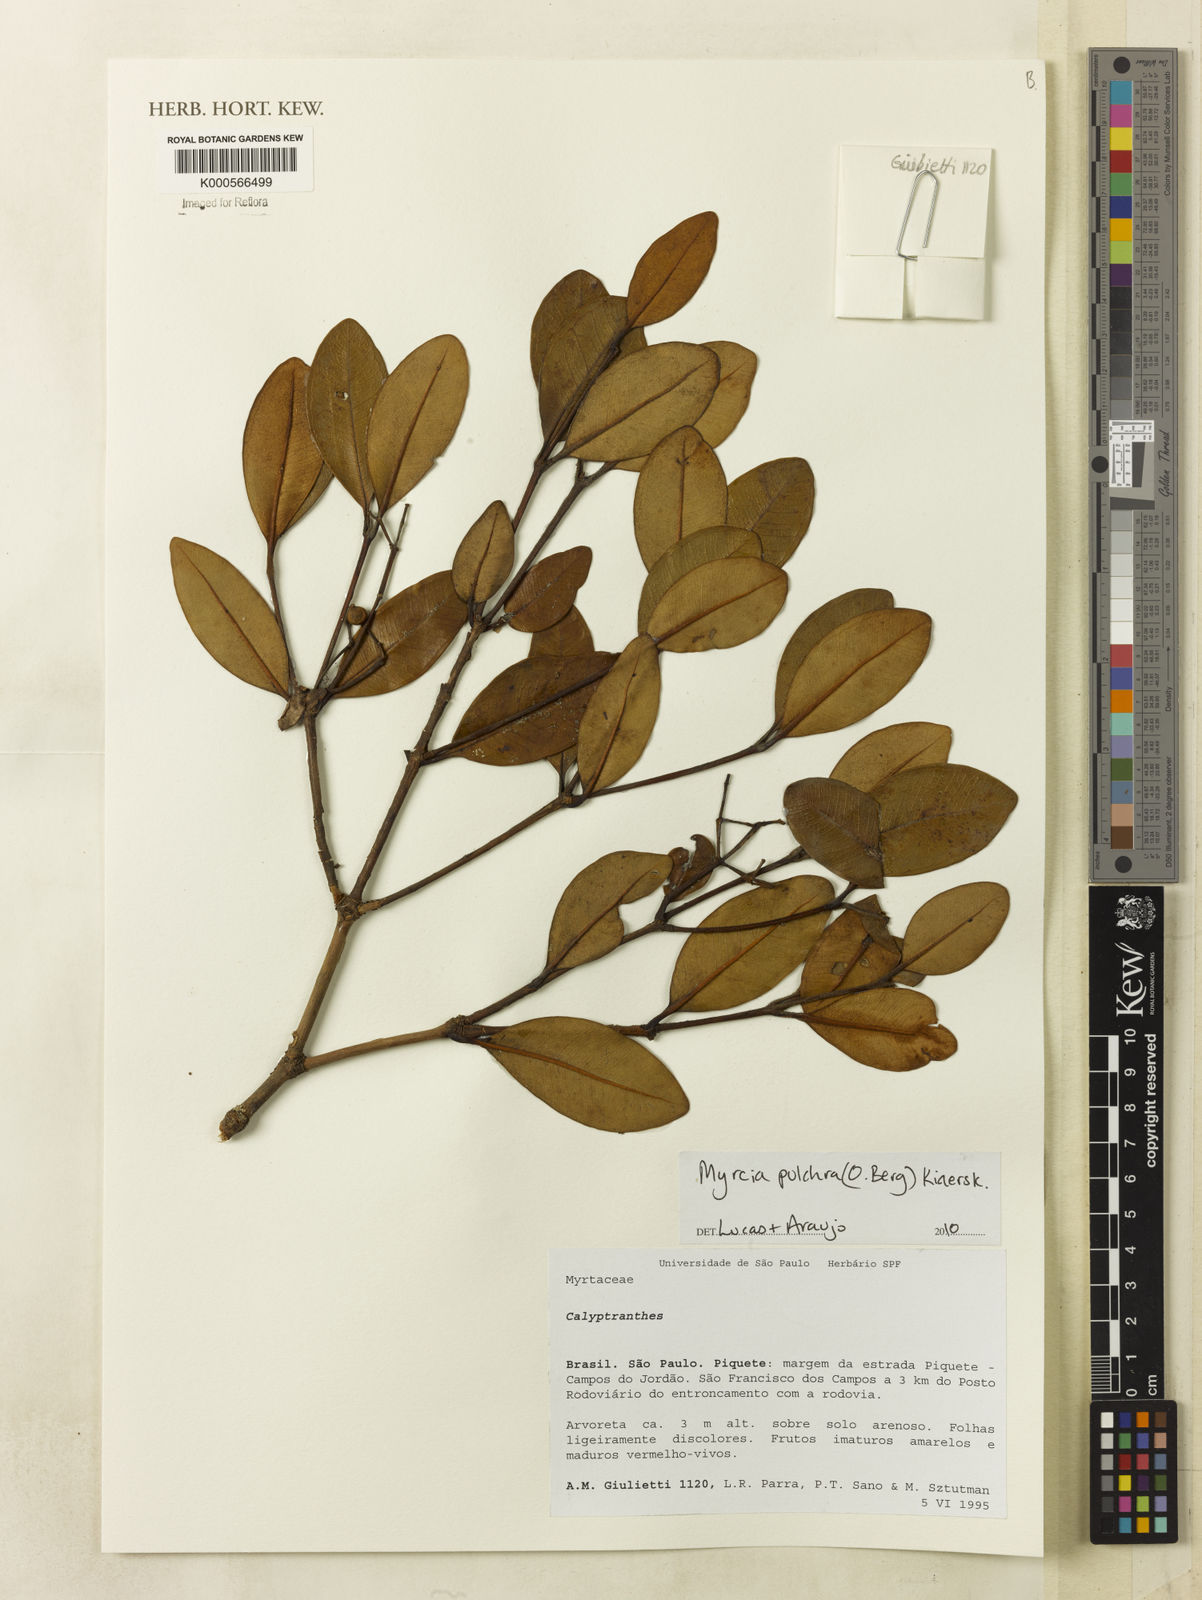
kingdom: Plantae
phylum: Tracheophyta
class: Magnoliopsida
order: Myrtales
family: Myrtaceae
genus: Myrcia
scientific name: Myrcia pulchra
